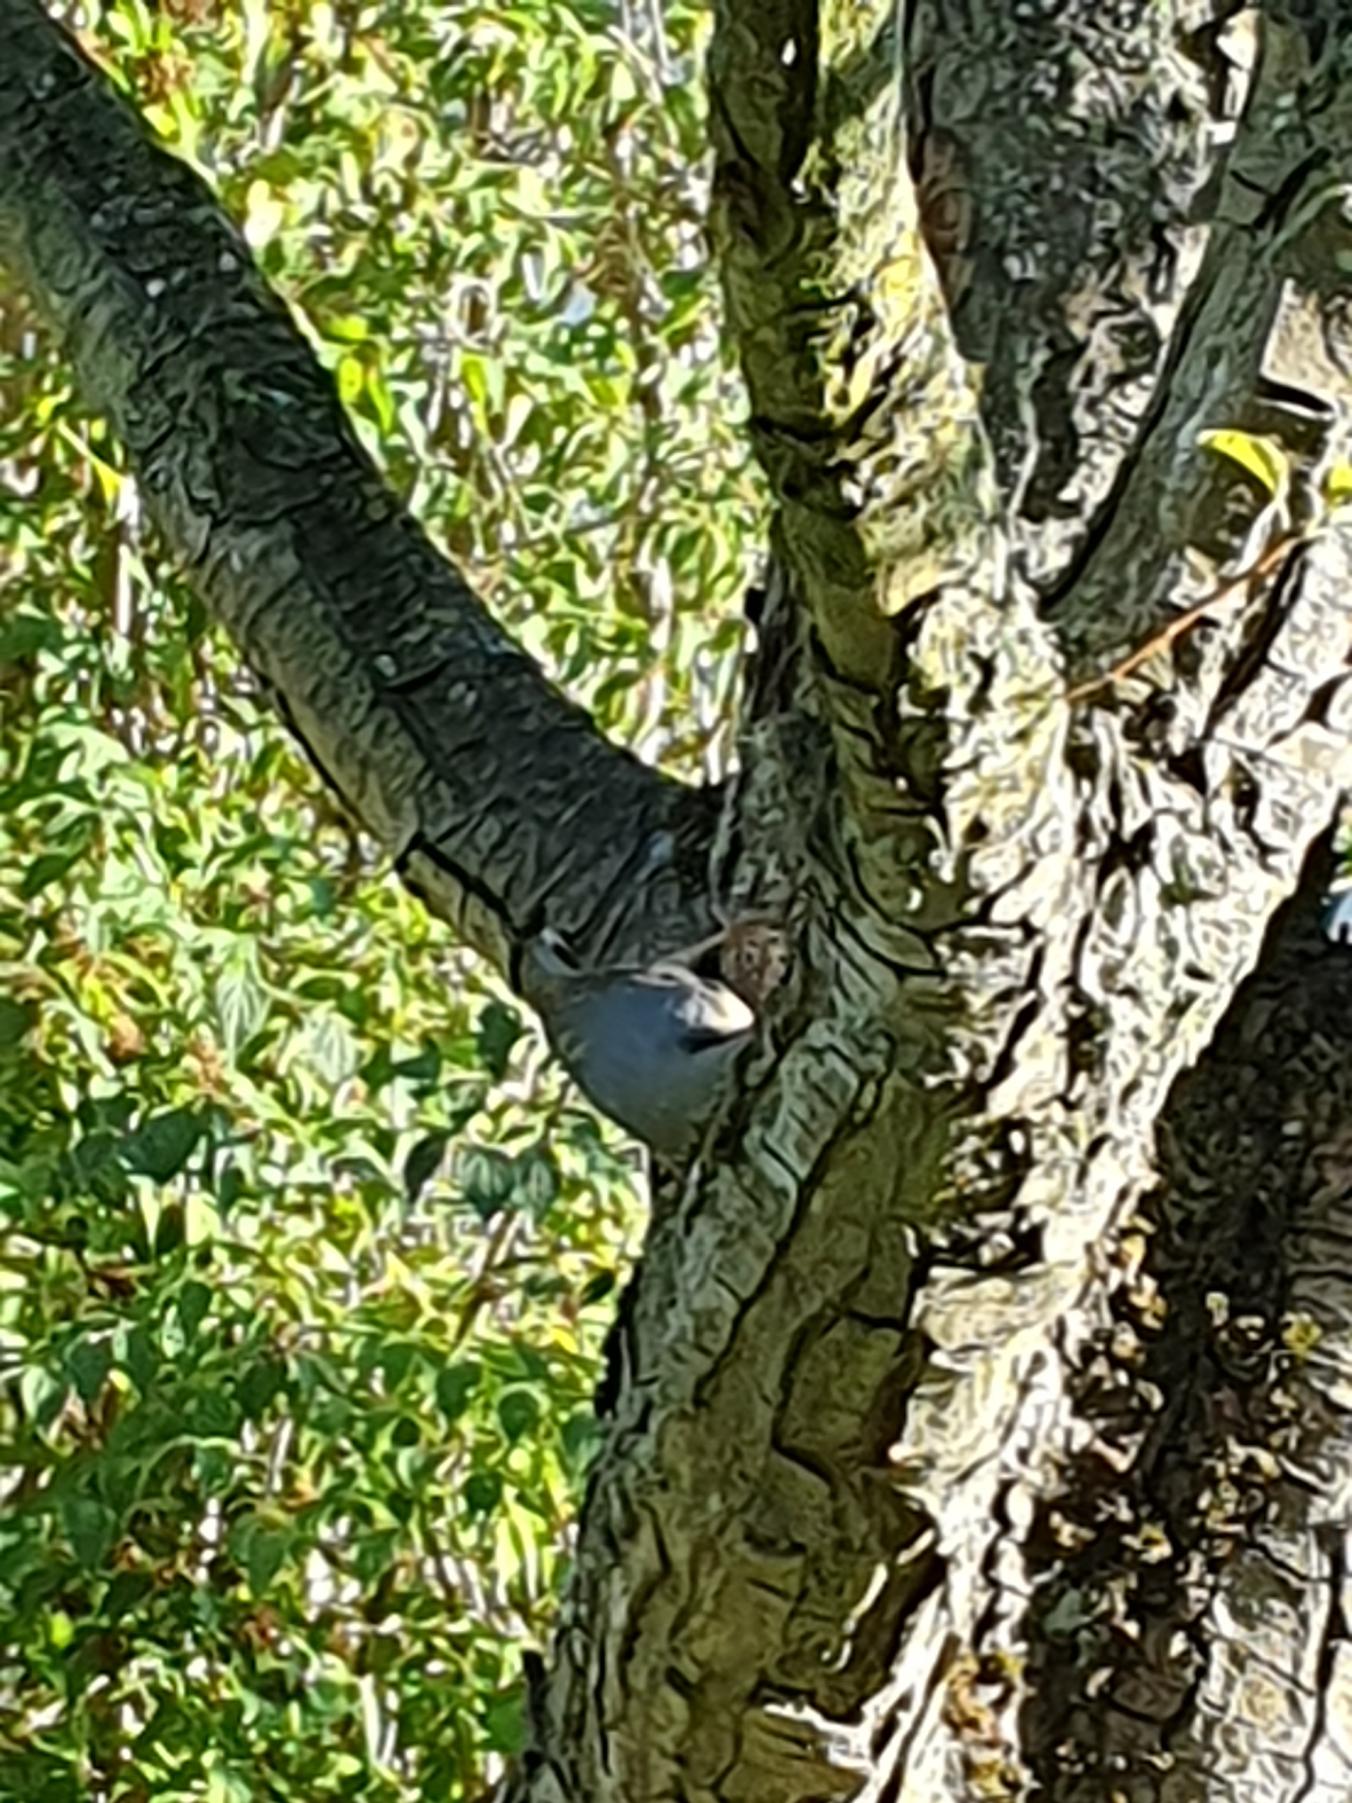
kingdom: Animalia
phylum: Chordata
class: Aves
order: Passeriformes
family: Sittidae
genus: Sitta
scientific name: Sitta europaea
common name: Spætmejse
